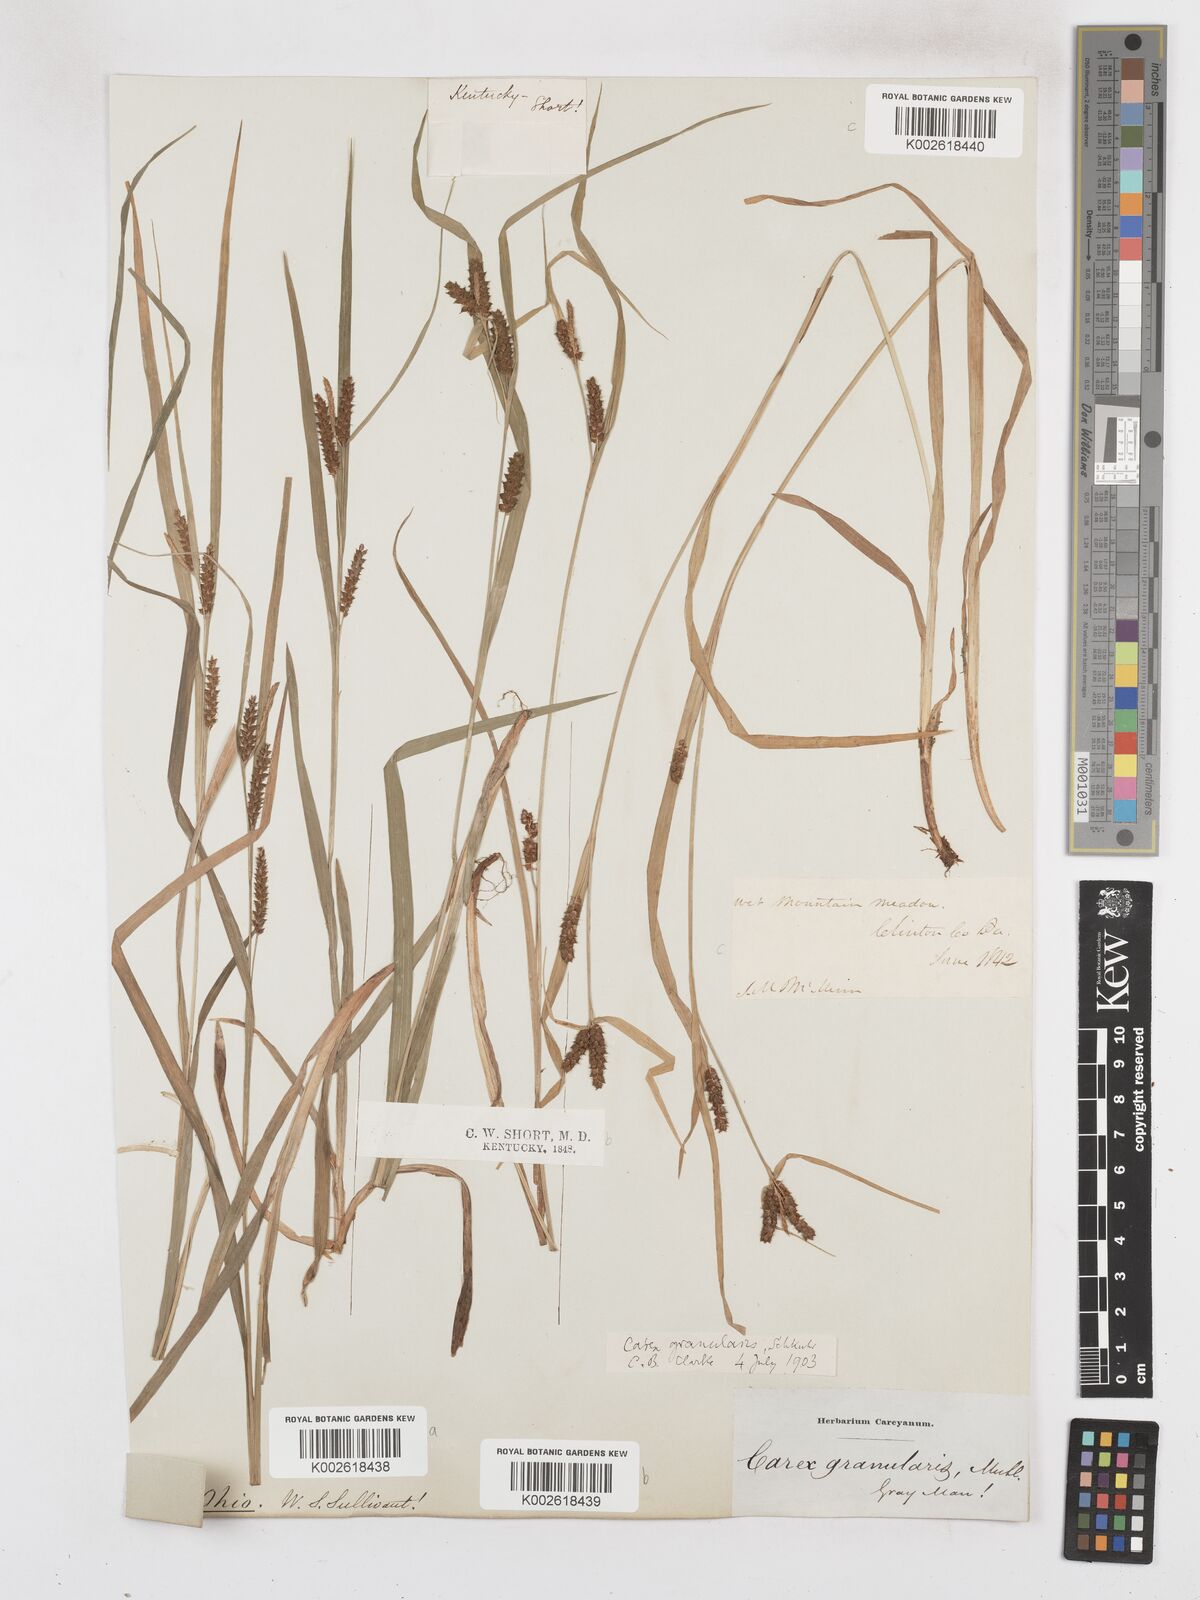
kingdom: Plantae
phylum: Tracheophyta
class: Liliopsida
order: Poales
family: Cyperaceae
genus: Carex
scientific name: Carex livida
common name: Livid sedge
